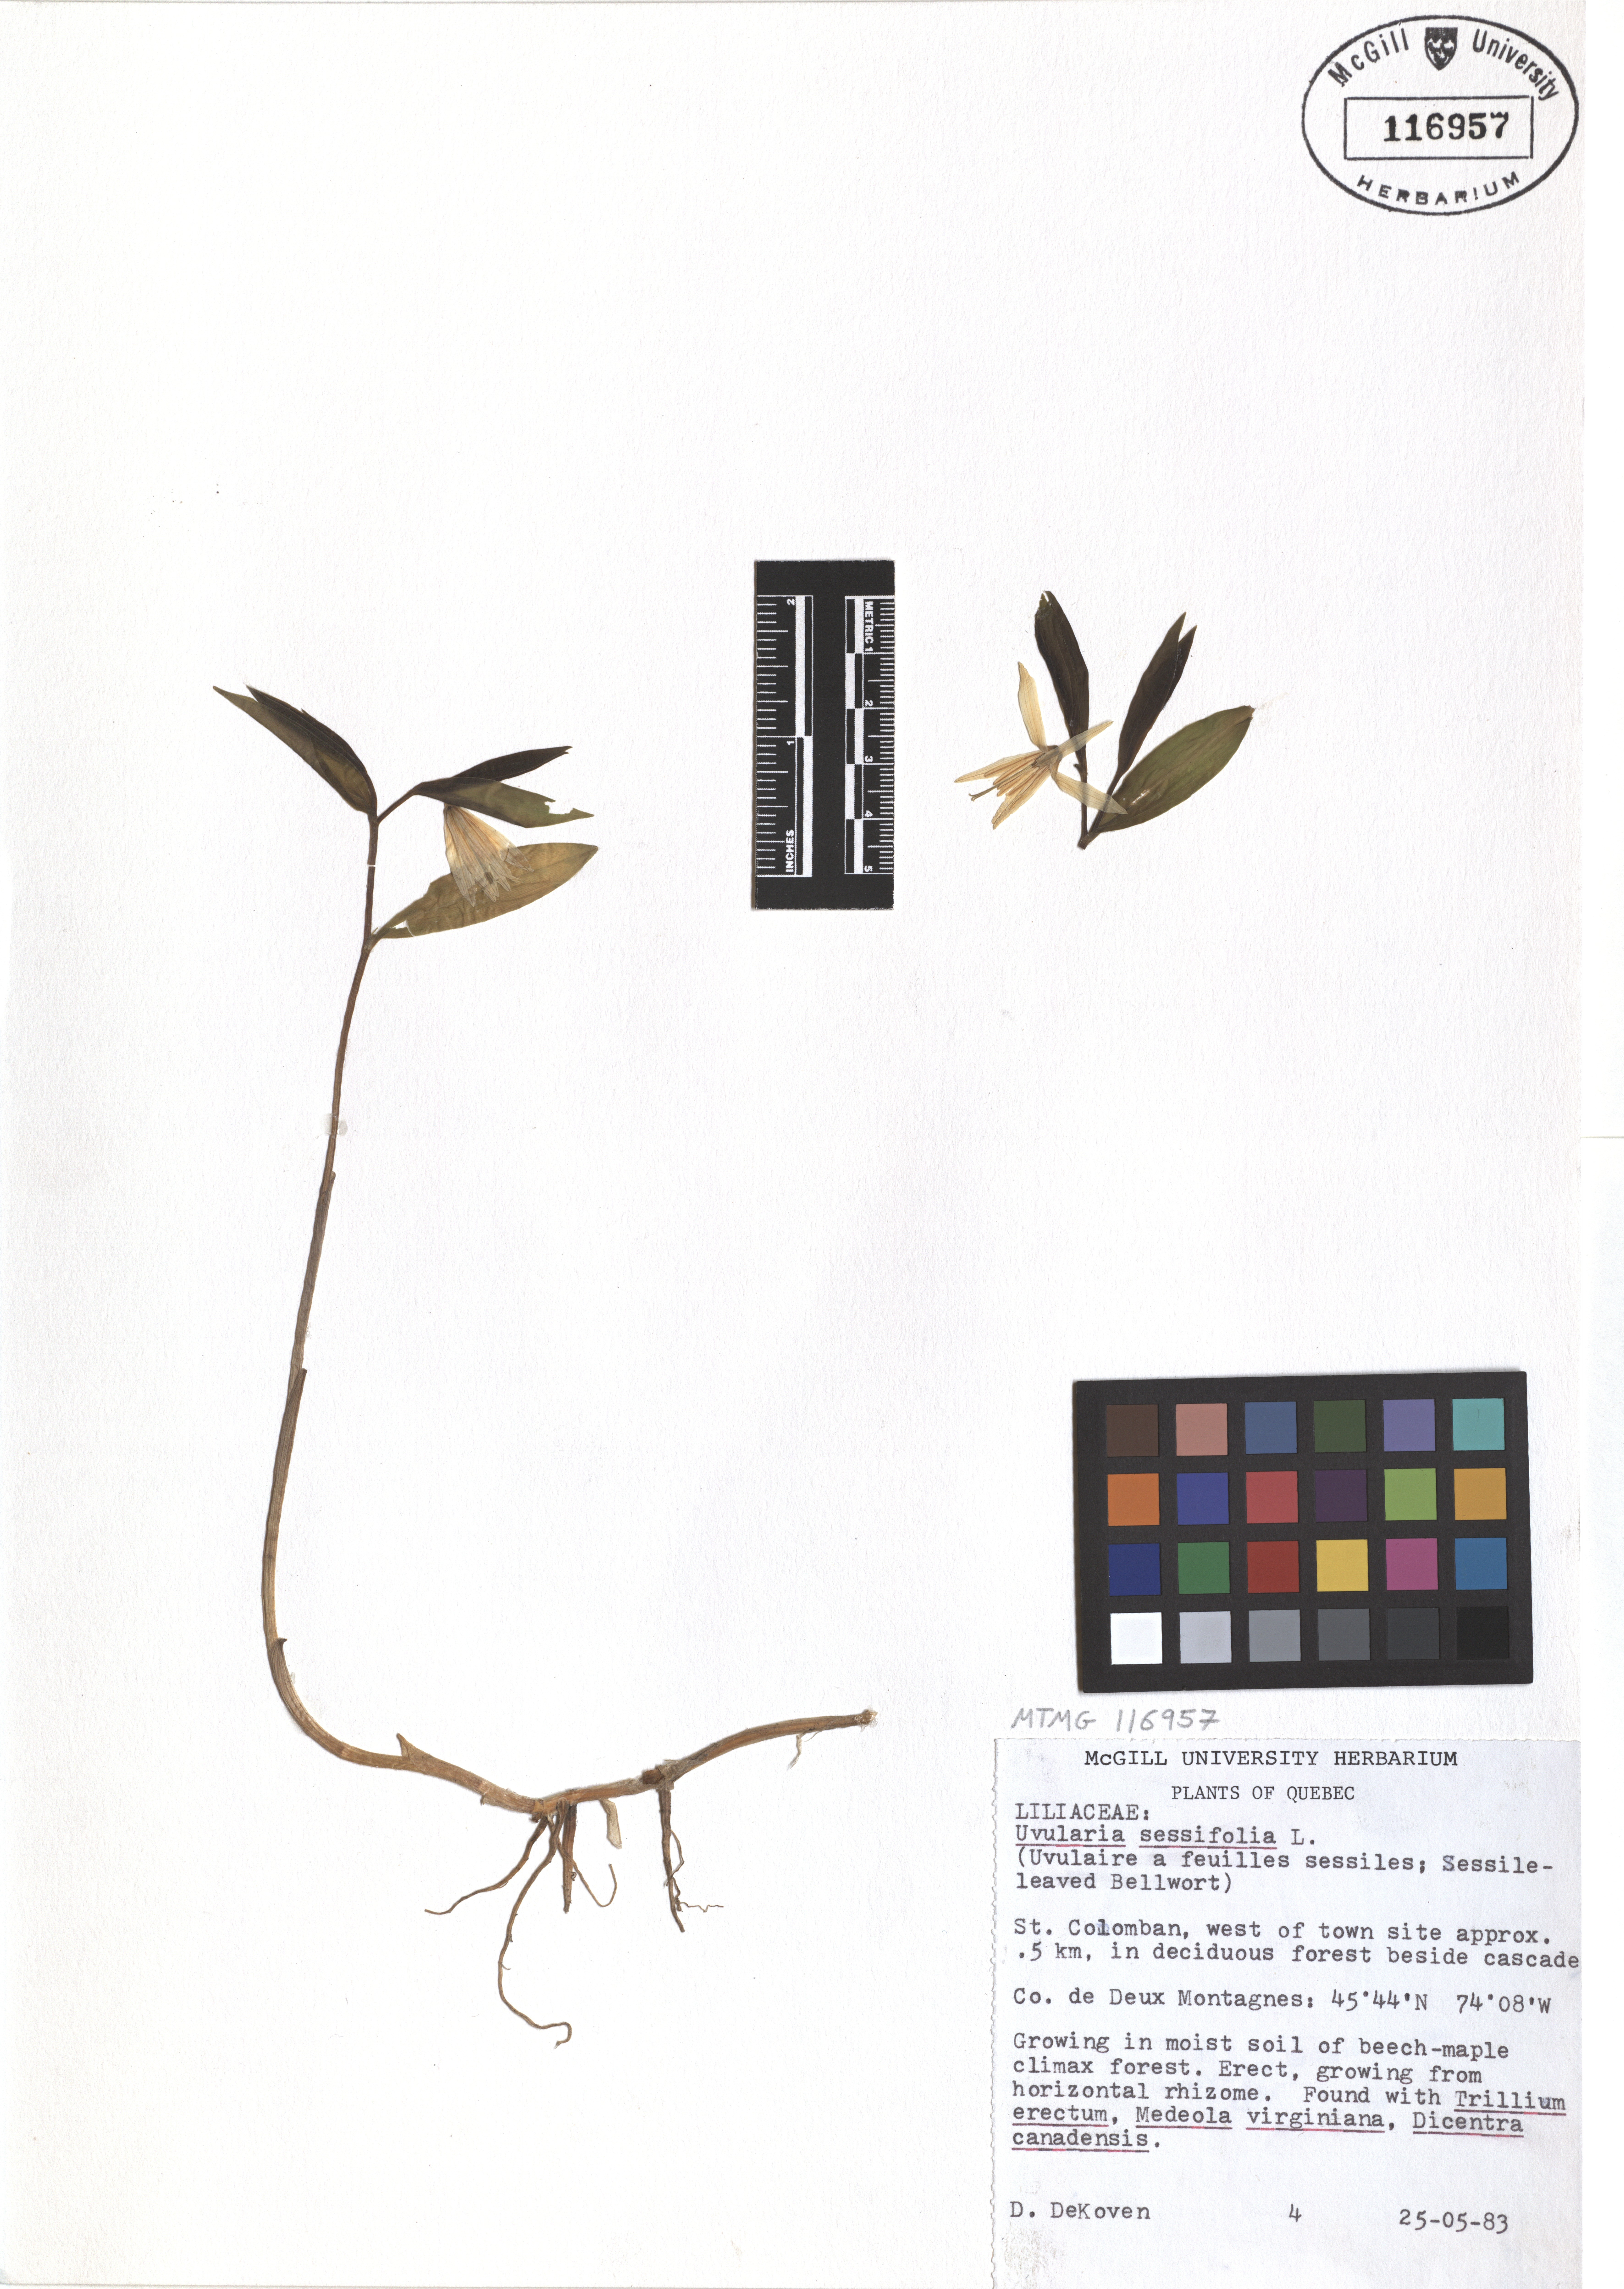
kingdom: Plantae
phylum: Tracheophyta
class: Liliopsida
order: Liliales
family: Colchicaceae
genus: Uvularia
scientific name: Uvularia sessilifolia
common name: Straw-lily
